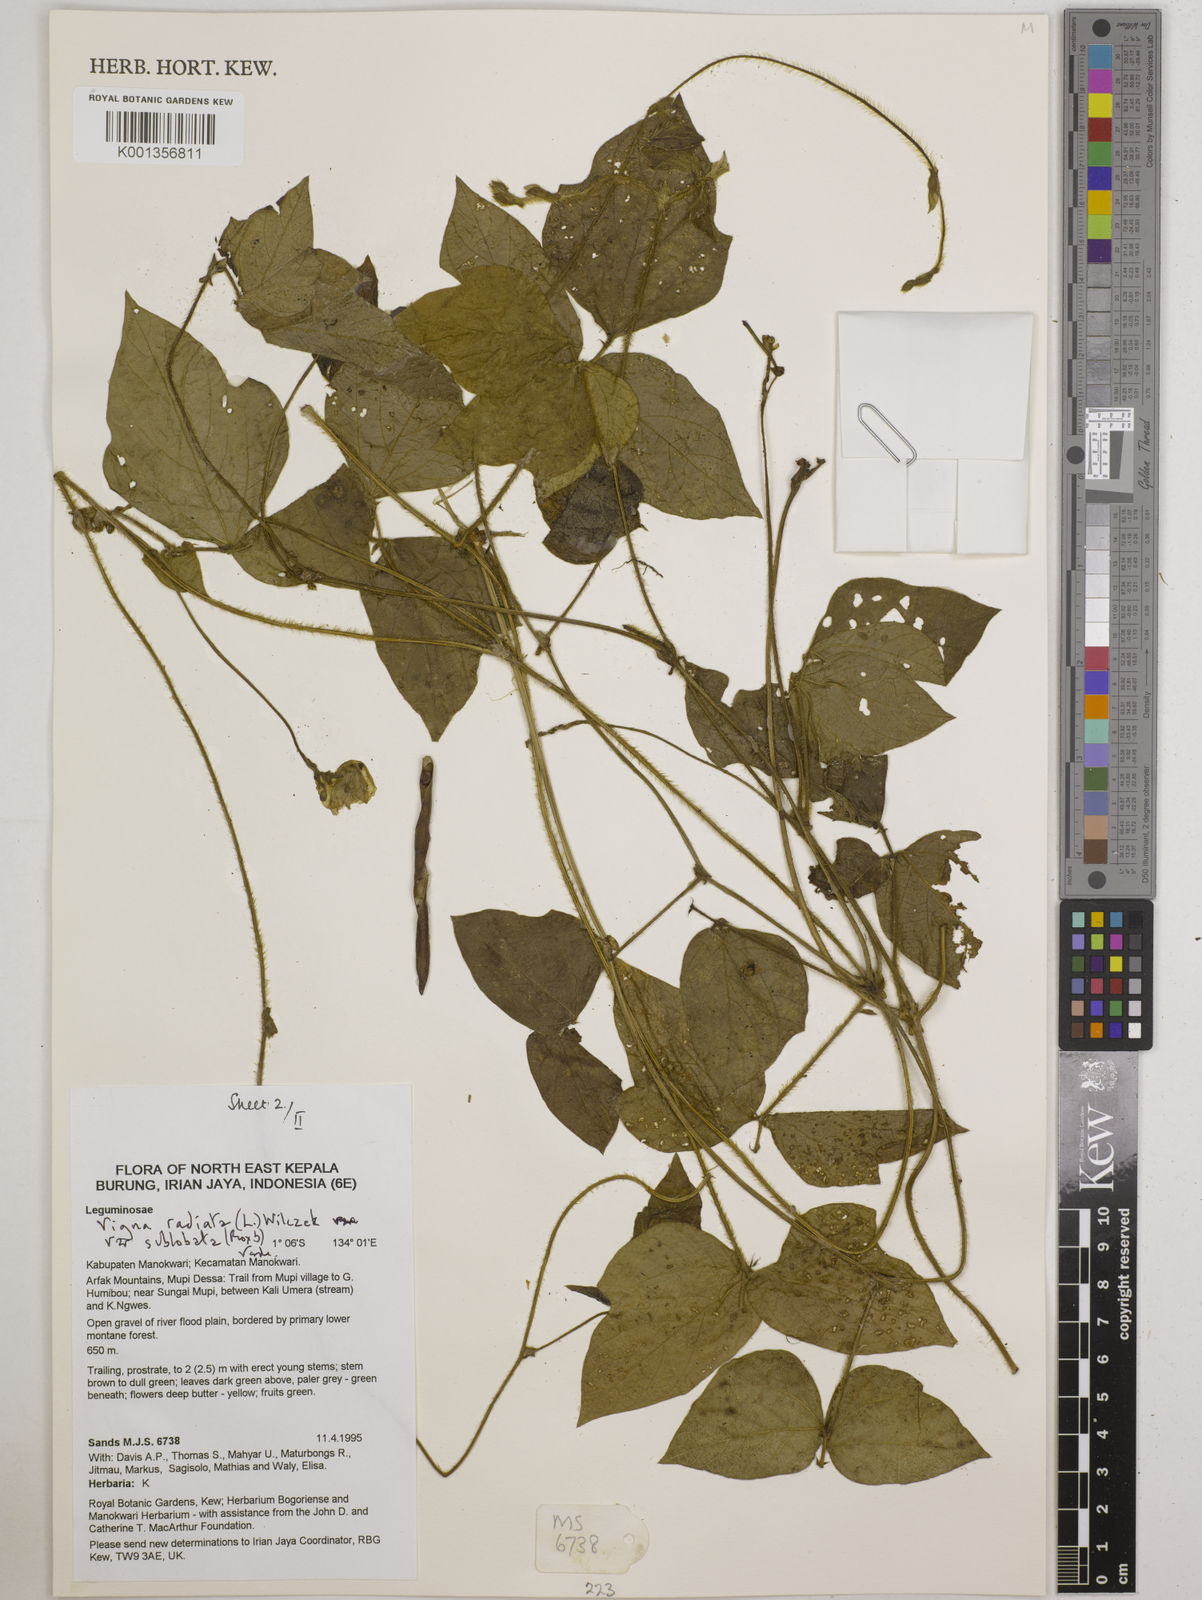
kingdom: Plantae
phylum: Tracheophyta
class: Magnoliopsida
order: Fabales
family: Fabaceae
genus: Vigna
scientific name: Vigna radiata
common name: Mung-bean
